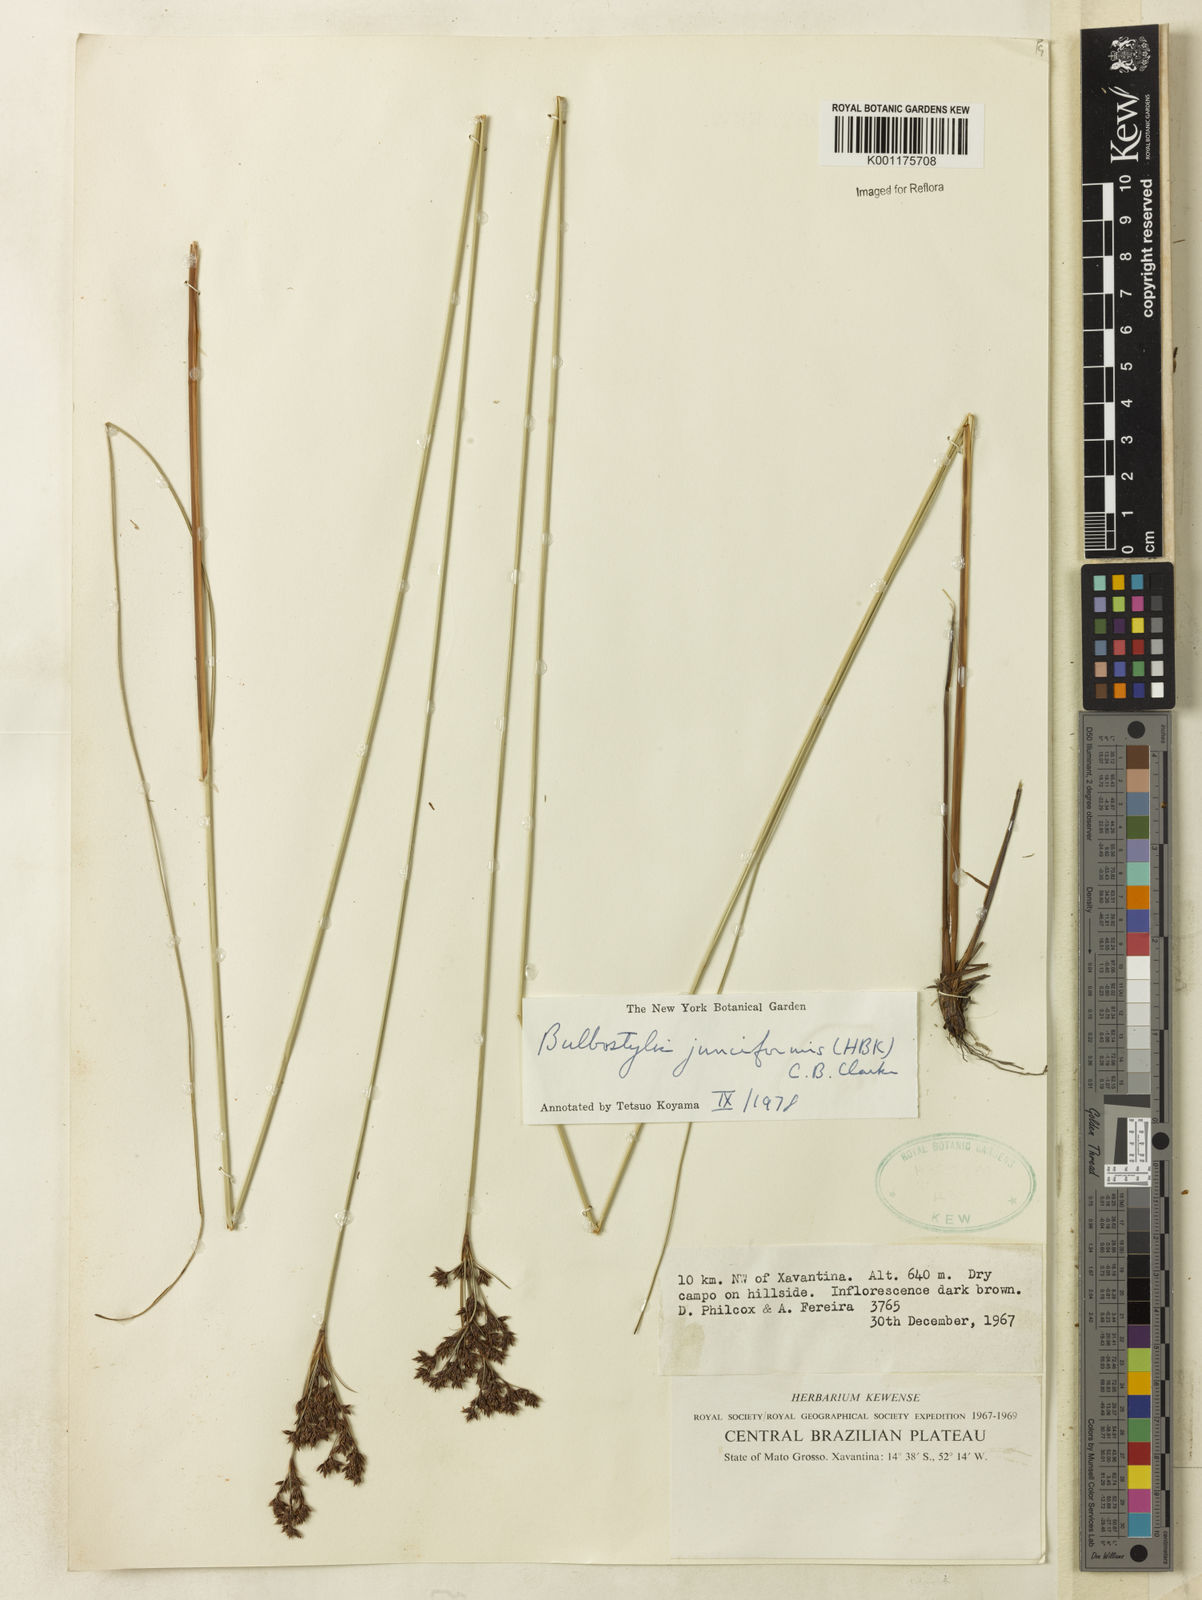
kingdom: Plantae
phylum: Tracheophyta
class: Liliopsida
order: Poales
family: Cyperaceae
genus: Bulbostylis
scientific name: Bulbostylis junciformis
